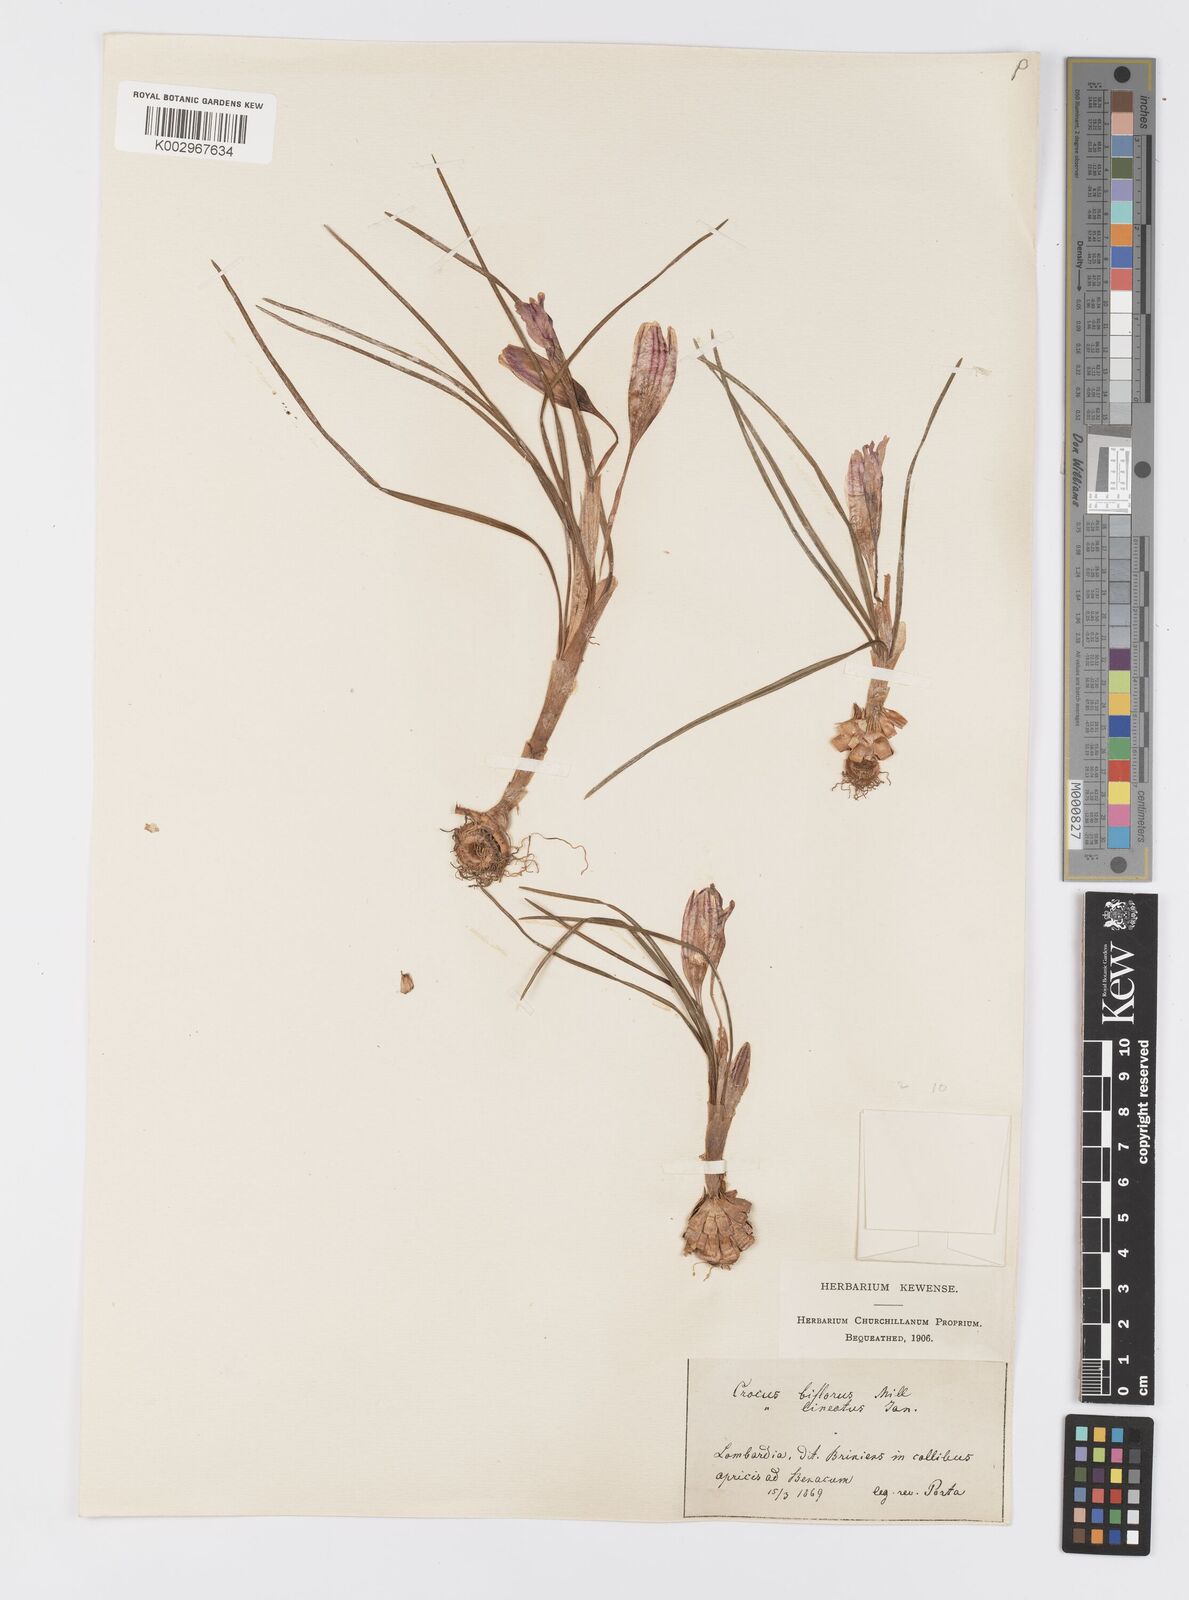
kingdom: Plantae
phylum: Tracheophyta
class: Liliopsida
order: Asparagales
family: Iridaceae
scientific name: Iridaceae
